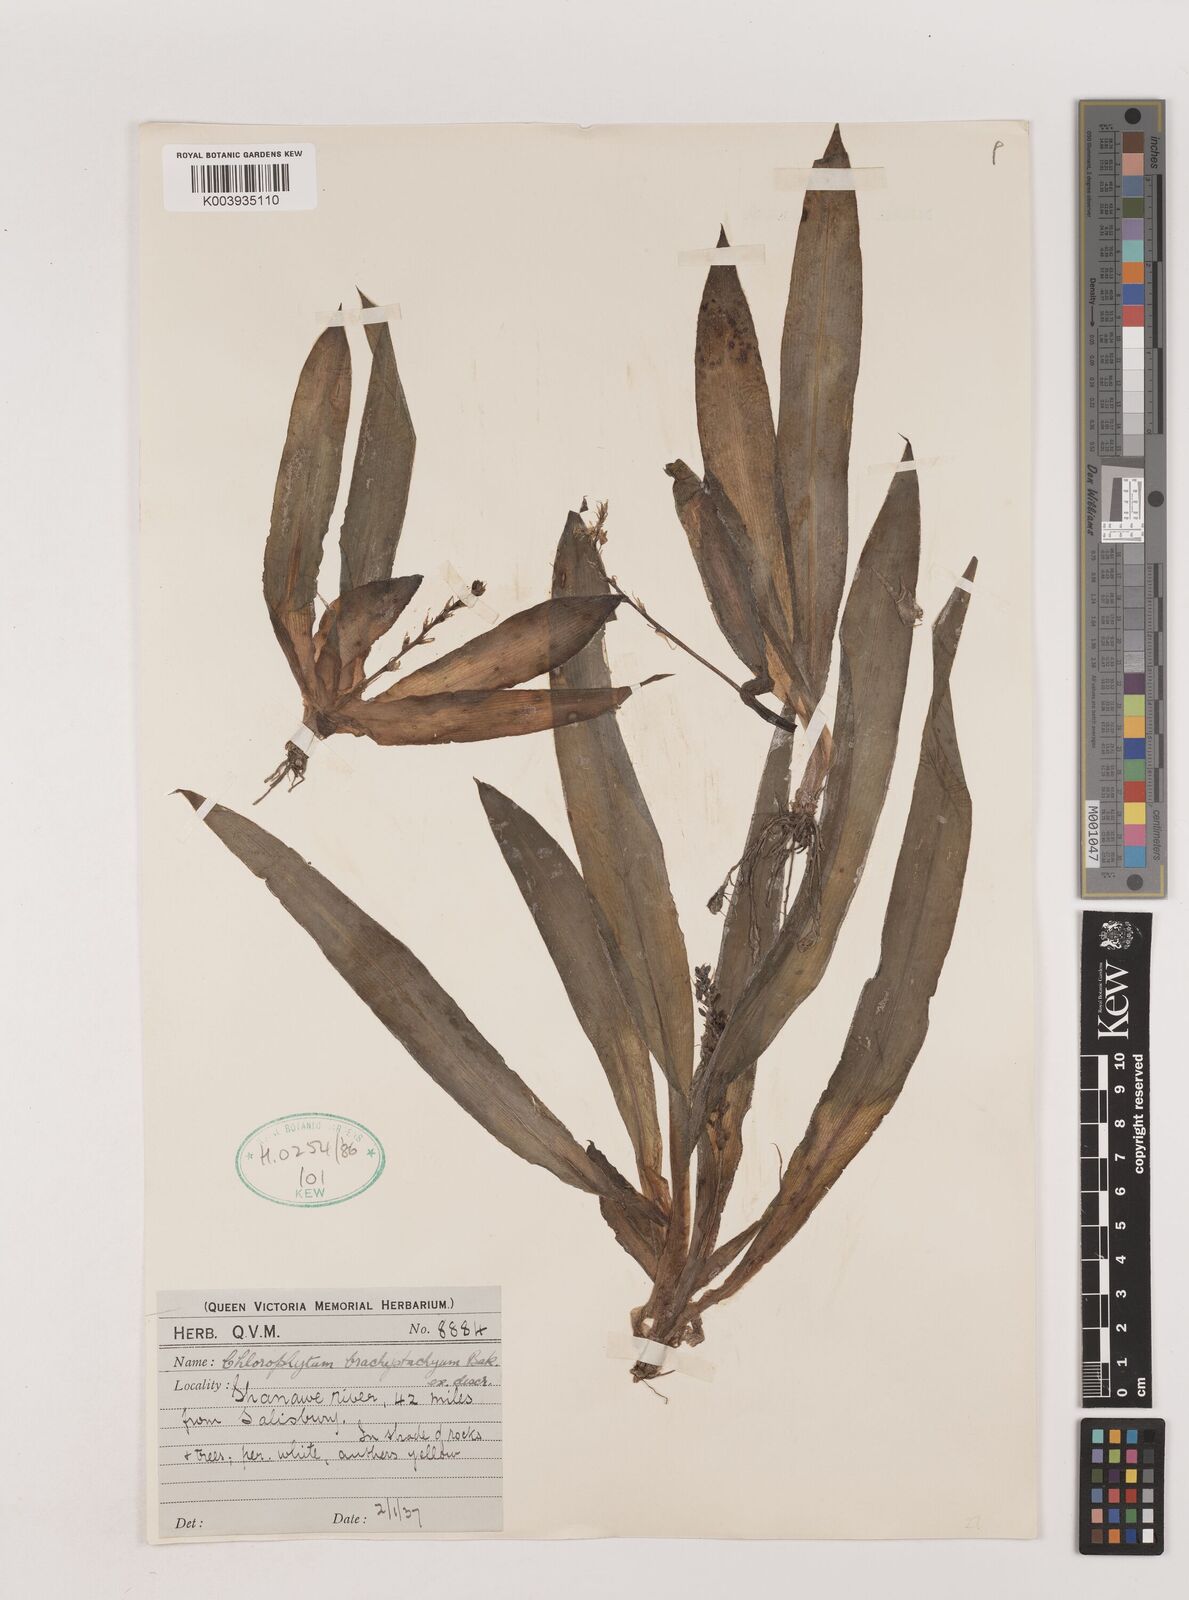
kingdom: Plantae
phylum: Tracheophyta
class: Liliopsida
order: Asparagales
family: Asparagaceae
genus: Chlorophytum
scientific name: Chlorophytum brachystachyum
